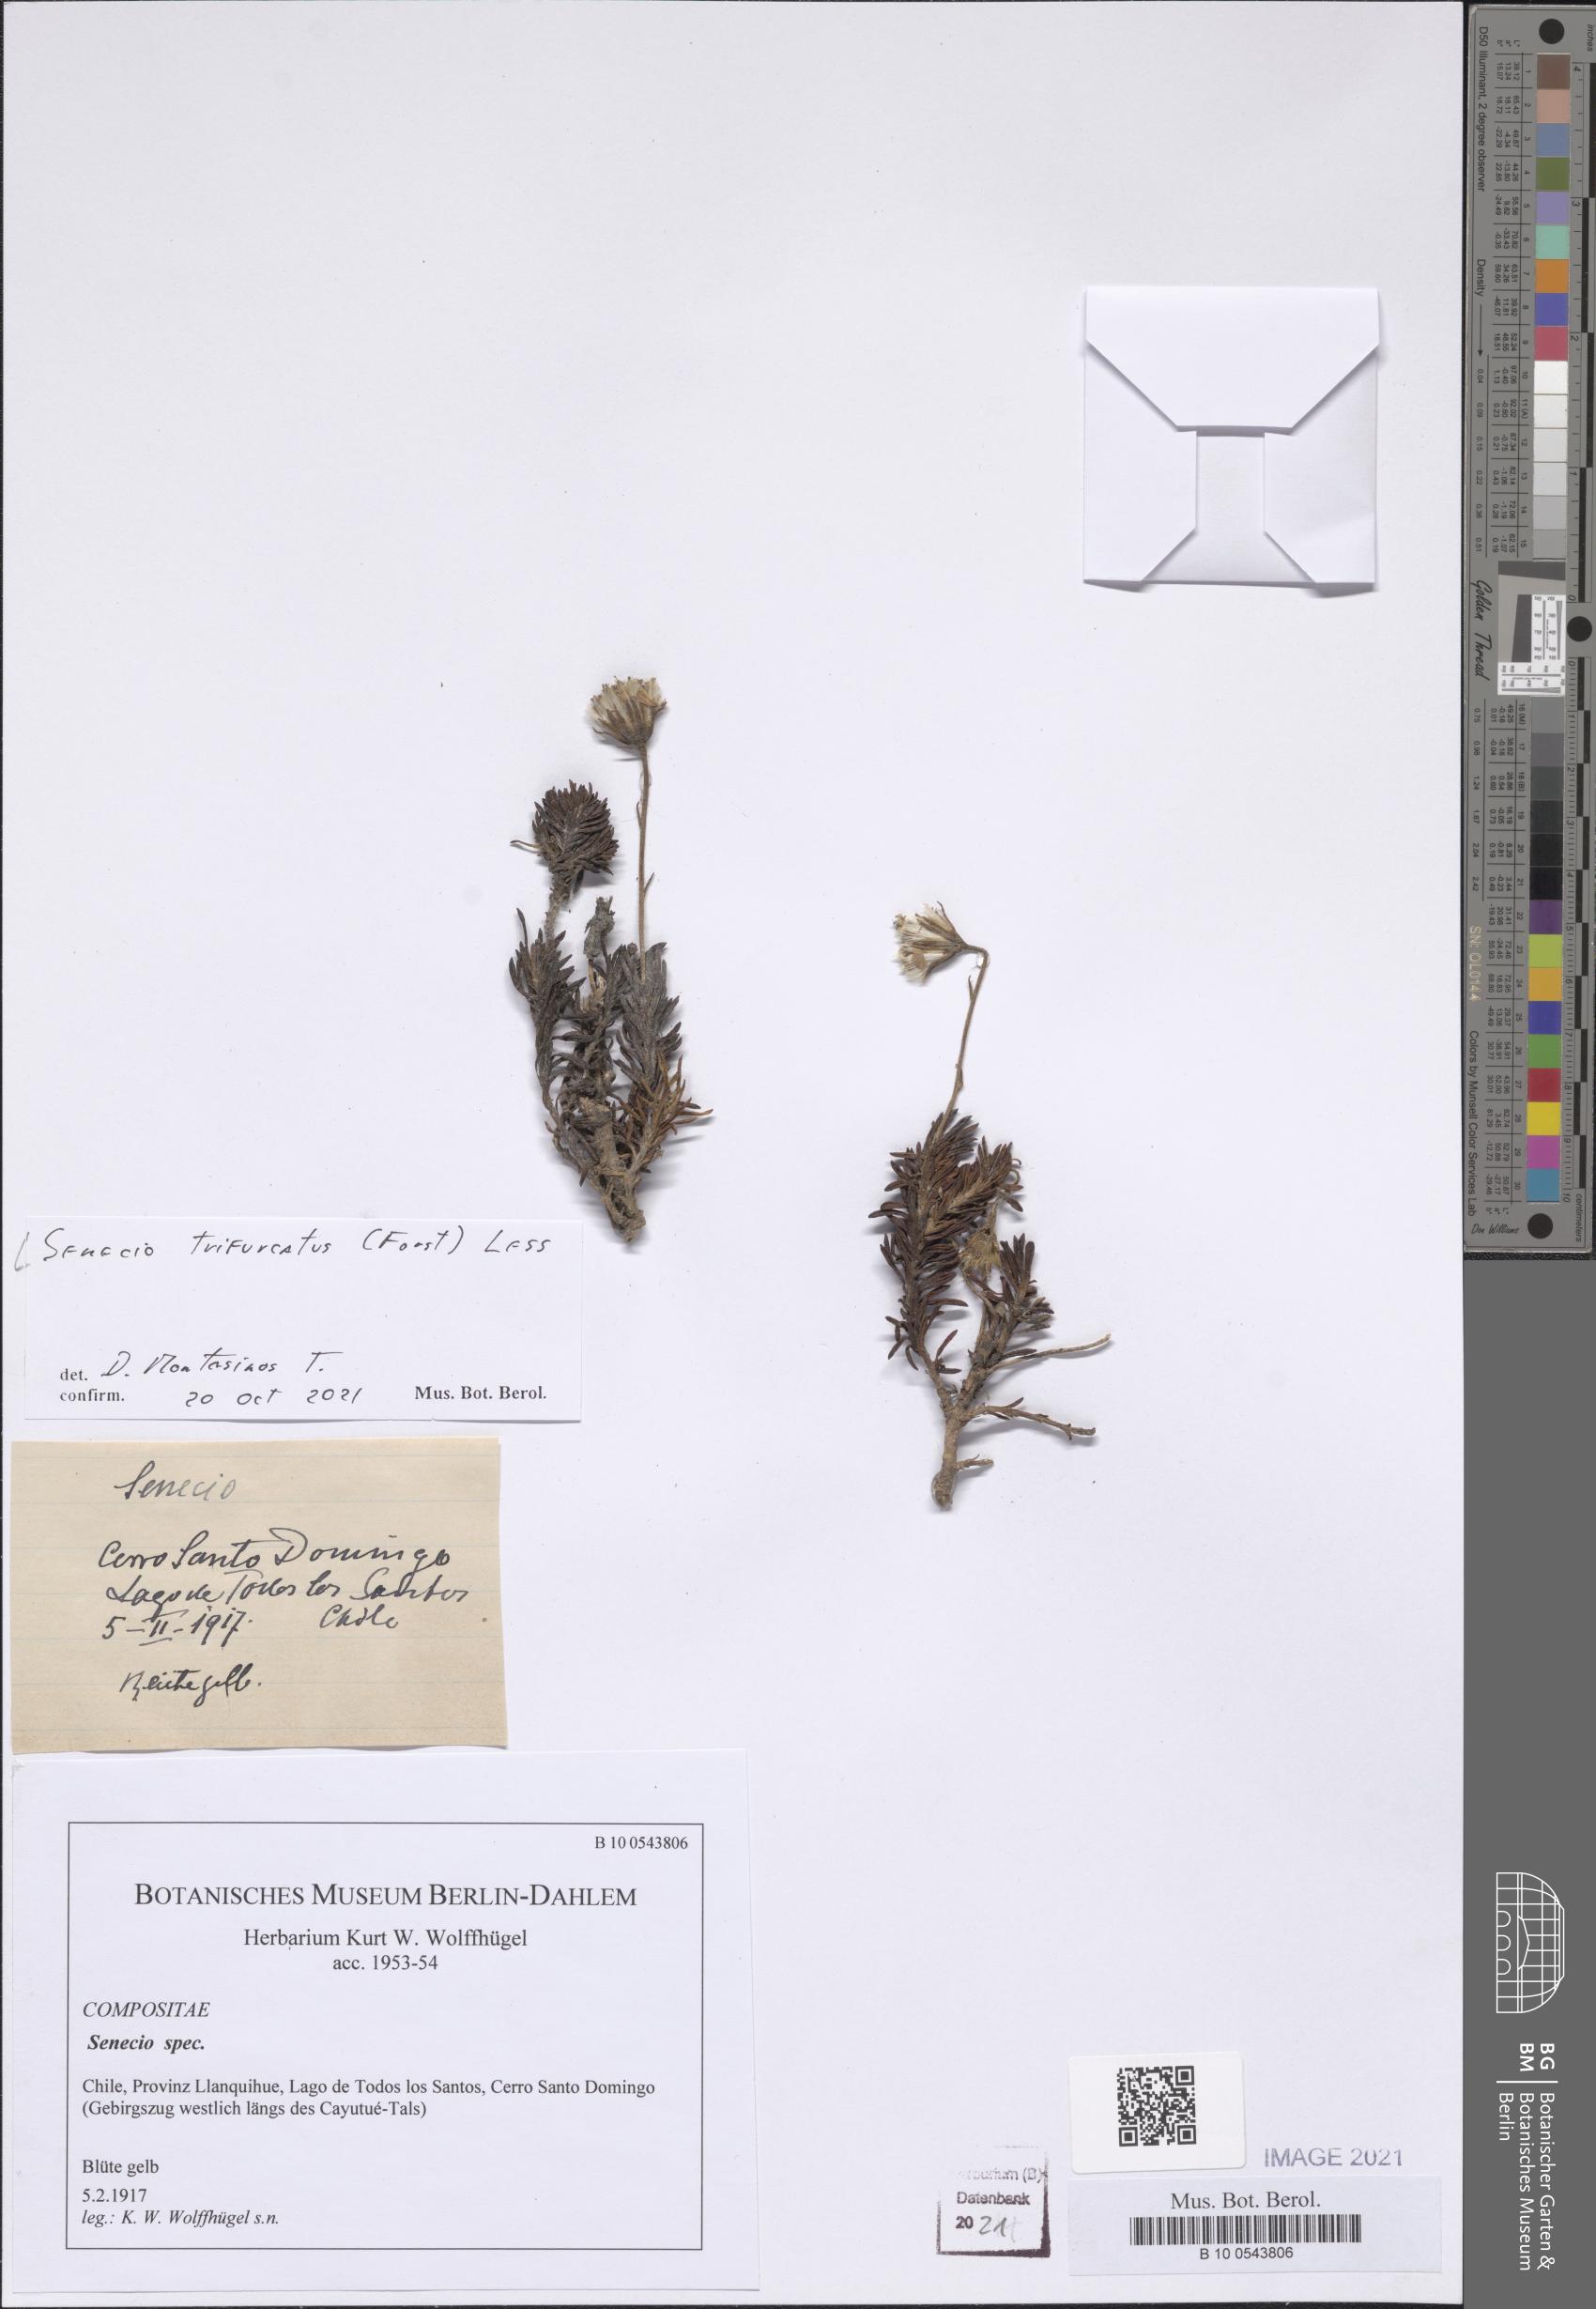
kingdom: Plantae
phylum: Tracheophyta
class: Magnoliopsida
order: Asterales
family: Asteraceae
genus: Haplosticha
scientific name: Haplosticha trifurcata
